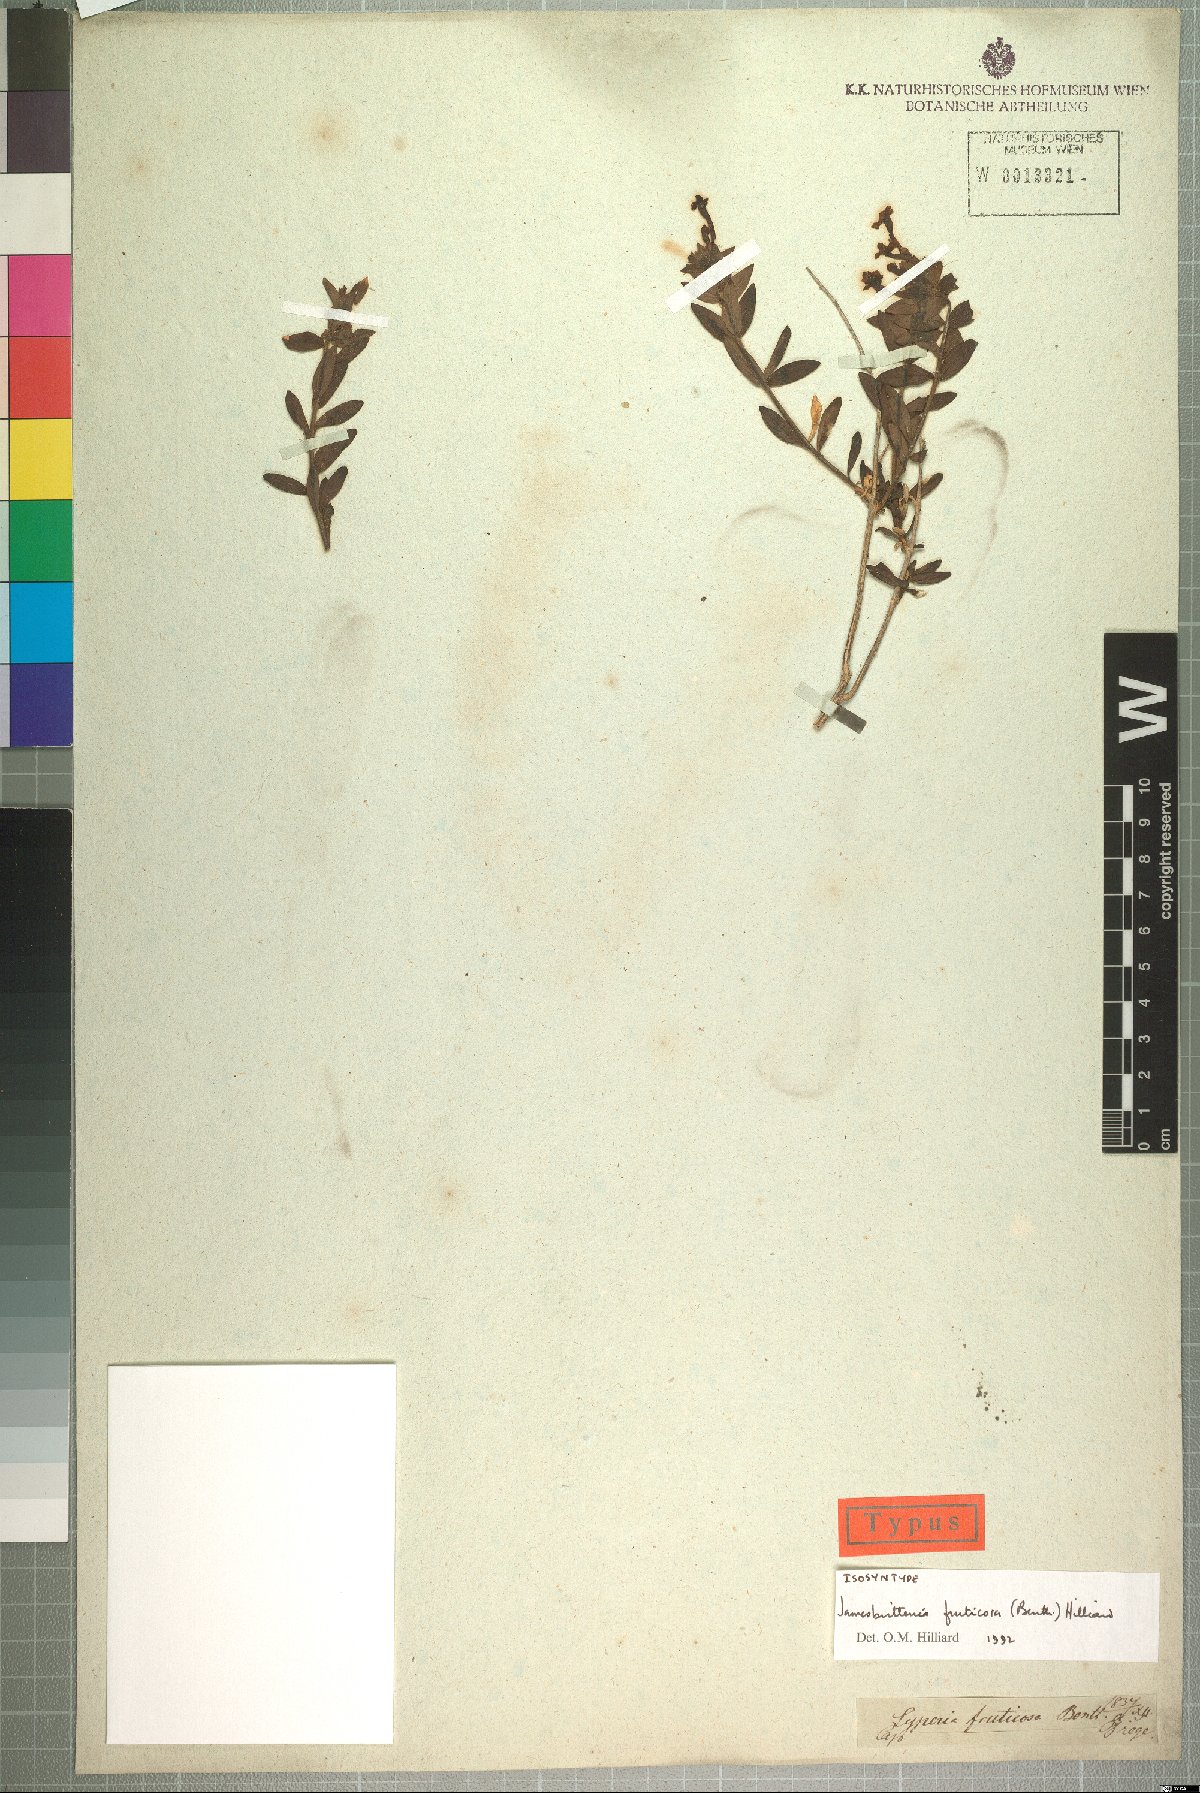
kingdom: Plantae
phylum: Tracheophyta
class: Magnoliopsida
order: Lamiales
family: Scrophulariaceae
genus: Jamesbrittenia
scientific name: Jamesbrittenia fruticosa
